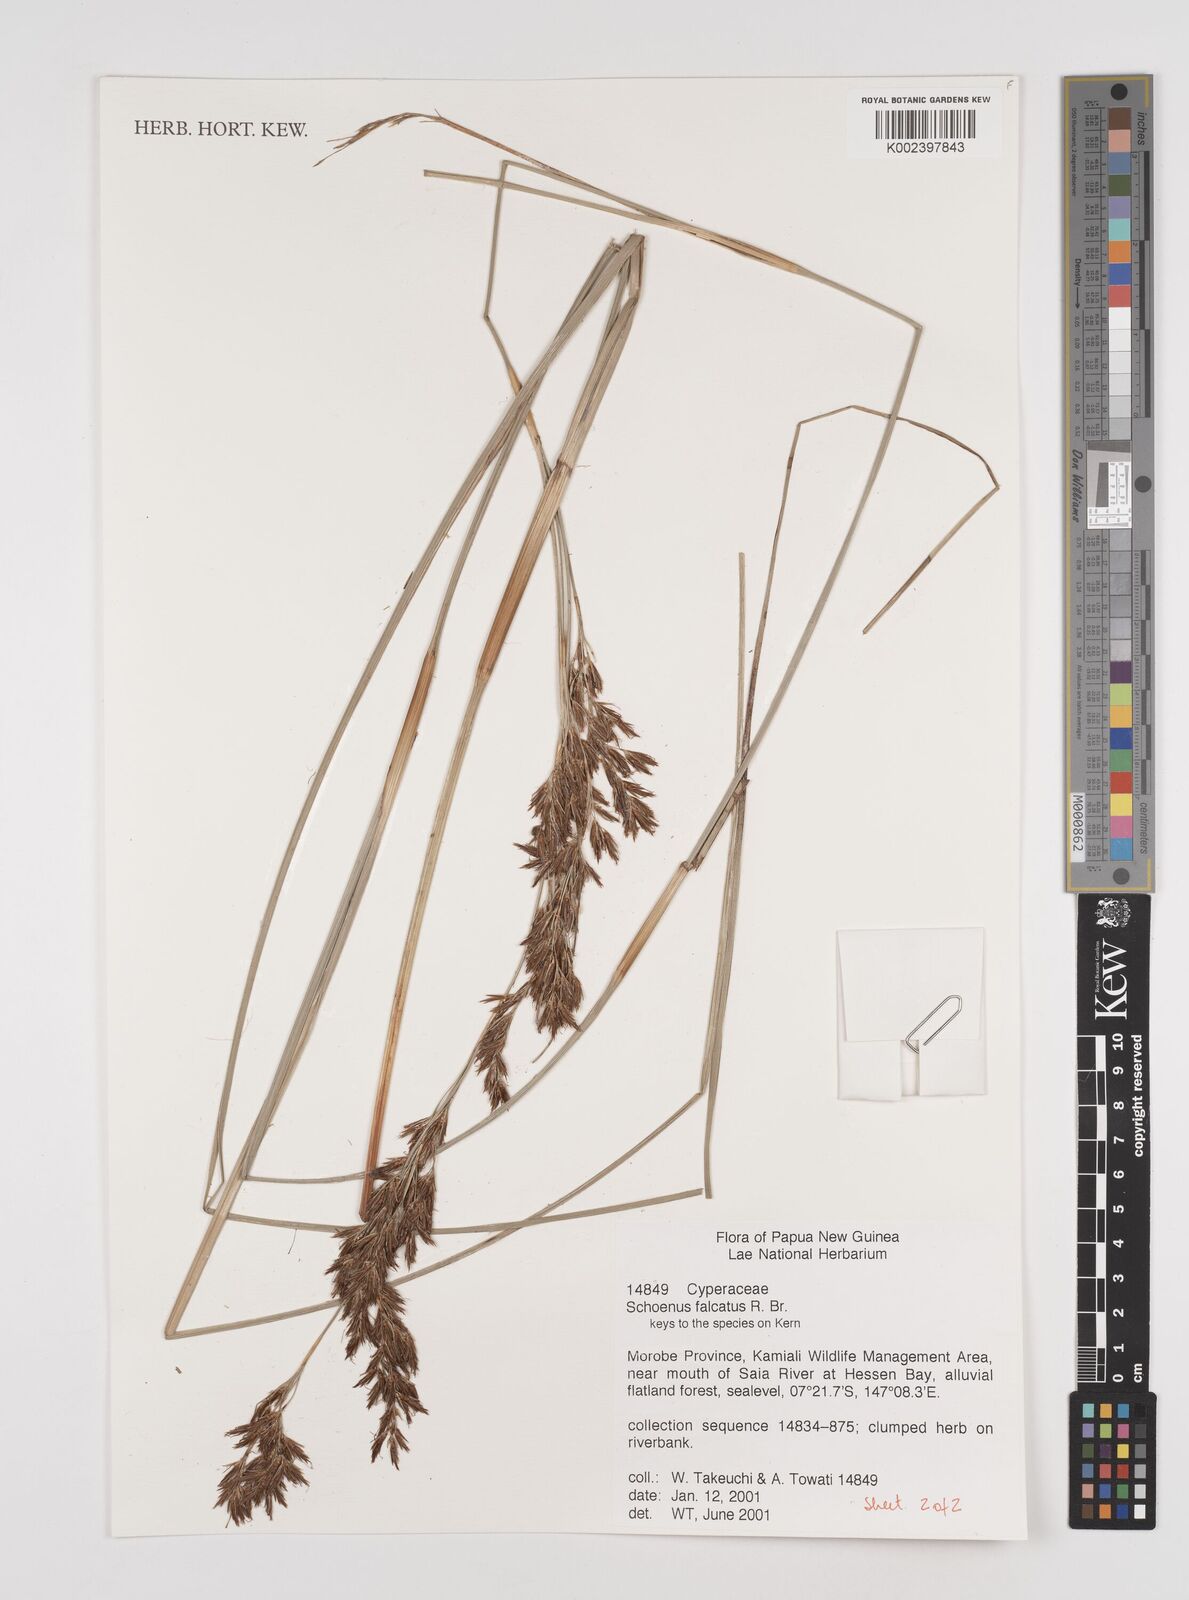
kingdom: Plantae
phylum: Tracheophyta
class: Liliopsida
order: Poales
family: Cyperaceae
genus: Schoenus
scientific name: Schoenus falcatus
